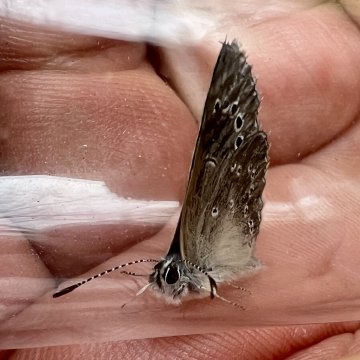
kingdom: Animalia
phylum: Arthropoda
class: Insecta
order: Lepidoptera
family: Lycaenidae
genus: Glaucopsyche
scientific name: Glaucopsyche lygdamus
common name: Silvery Blue
